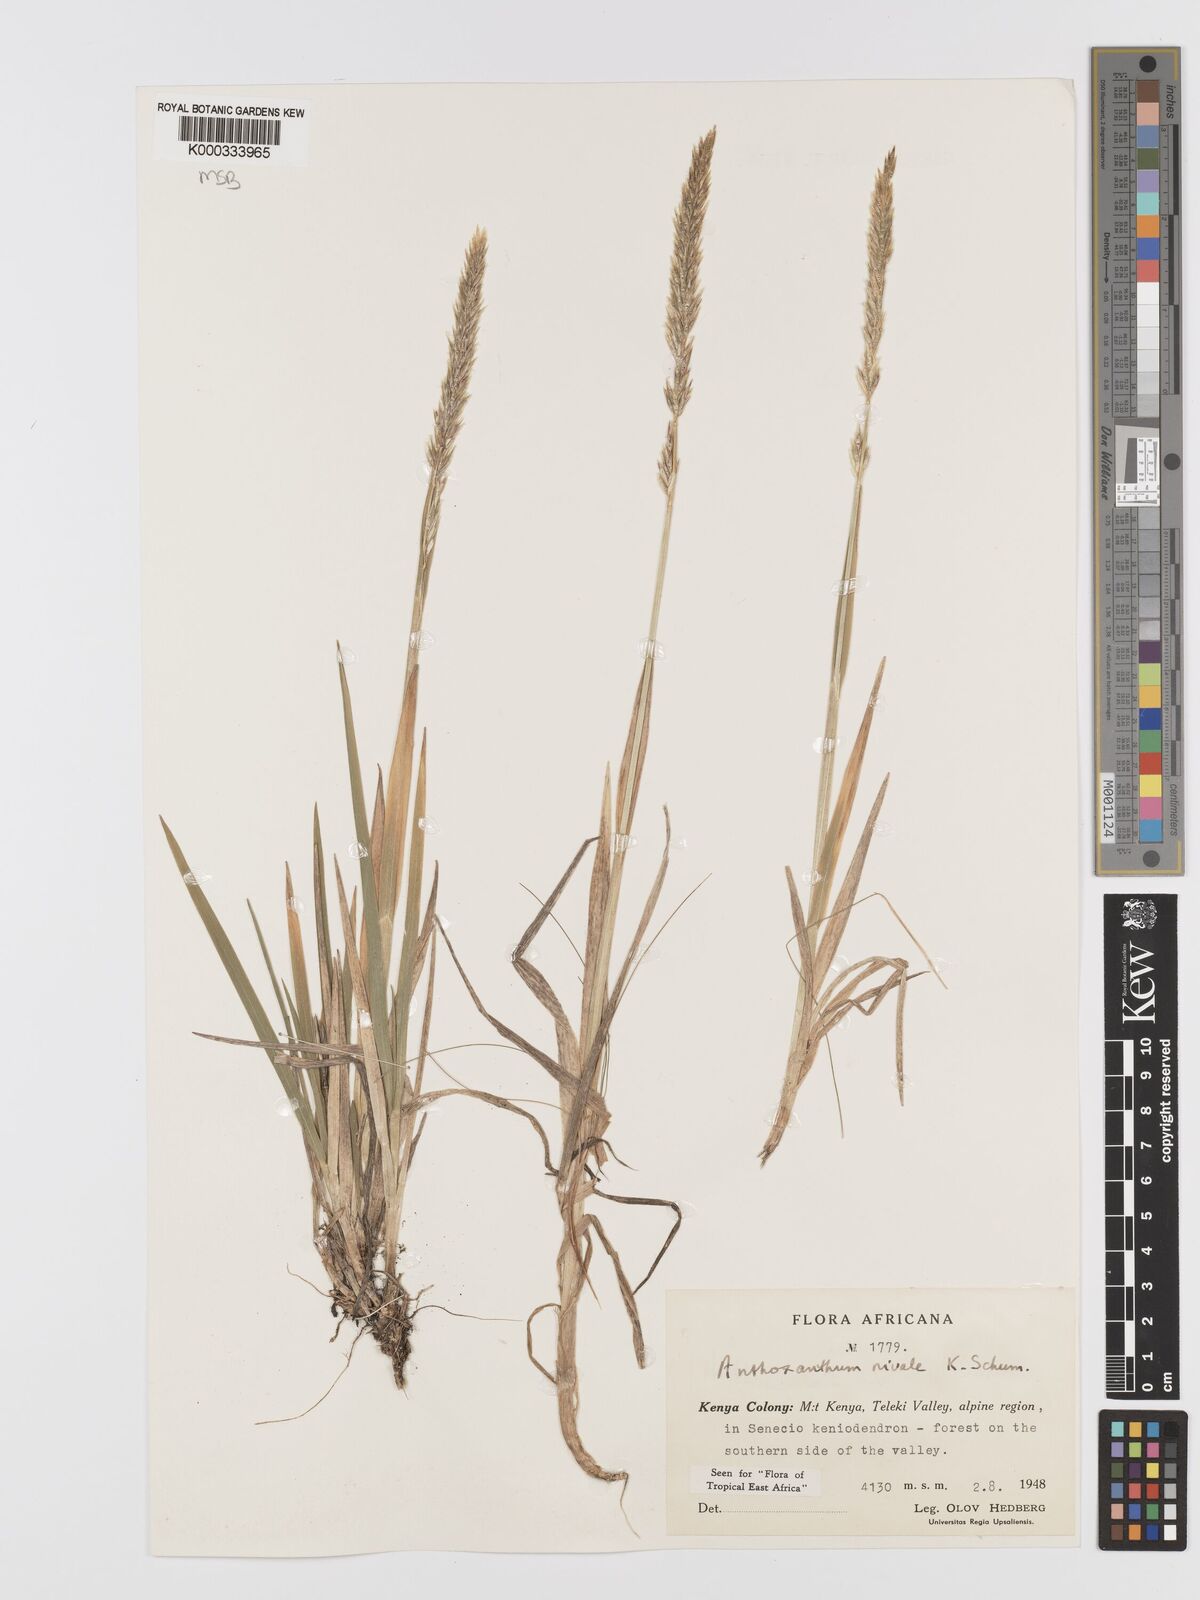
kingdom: Plantae
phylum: Tracheophyta
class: Liliopsida
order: Poales
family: Poaceae
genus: Anthoxanthum
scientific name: Anthoxanthum
